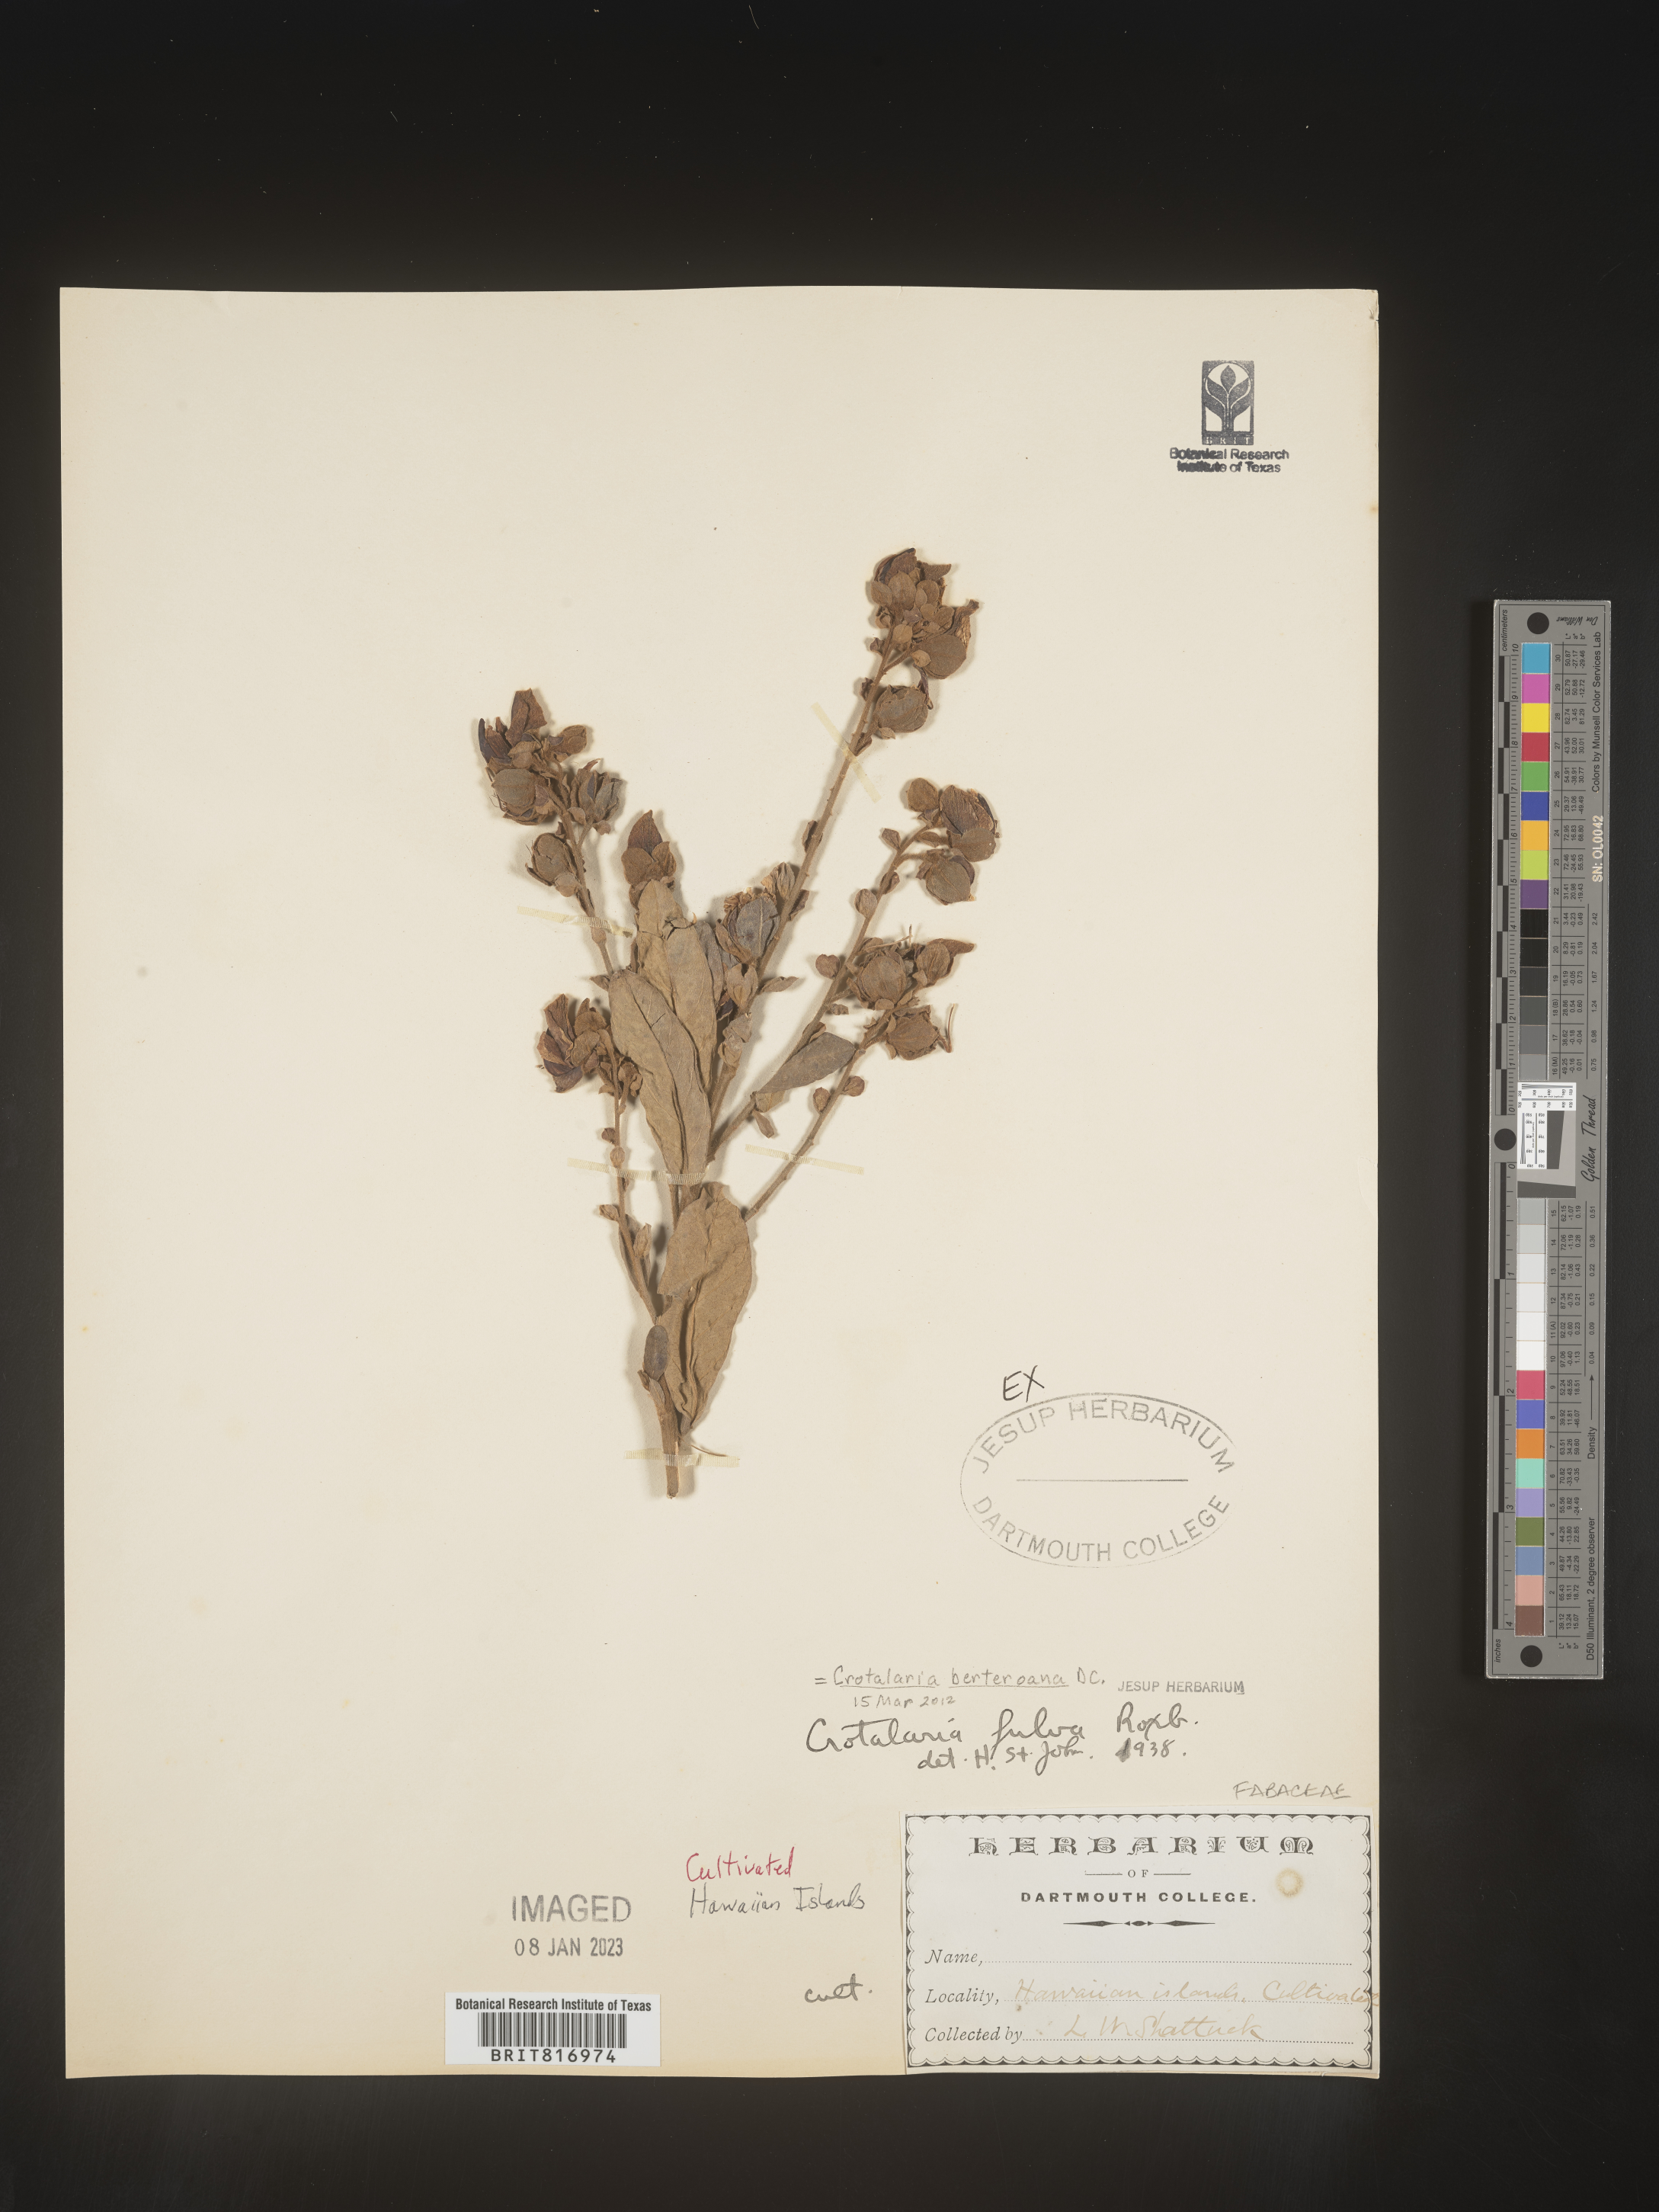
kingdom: Plantae
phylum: Tracheophyta
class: Magnoliopsida
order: Fabales
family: Fabaceae
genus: Crotalaria
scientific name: Crotalaria
